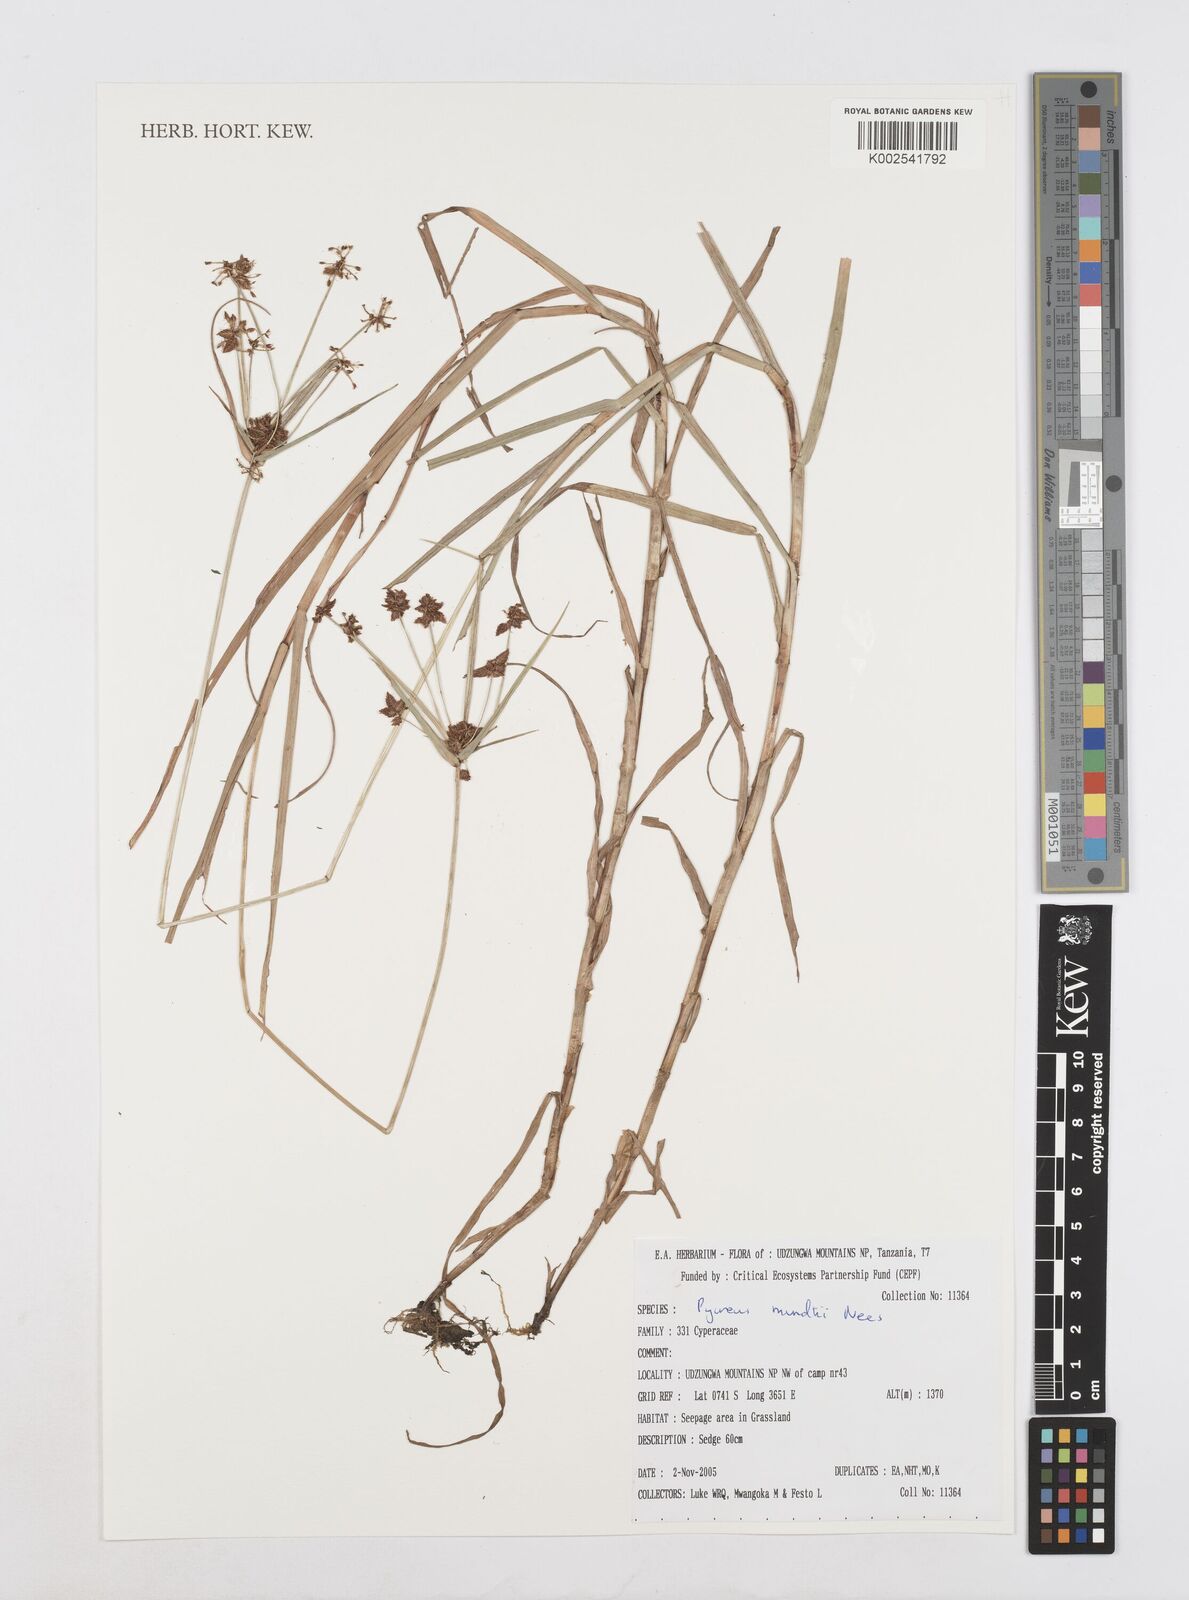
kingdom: Plantae
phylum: Tracheophyta
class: Liliopsida
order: Poales
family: Cyperaceae
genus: Cyperus
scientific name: Cyperus mundii
